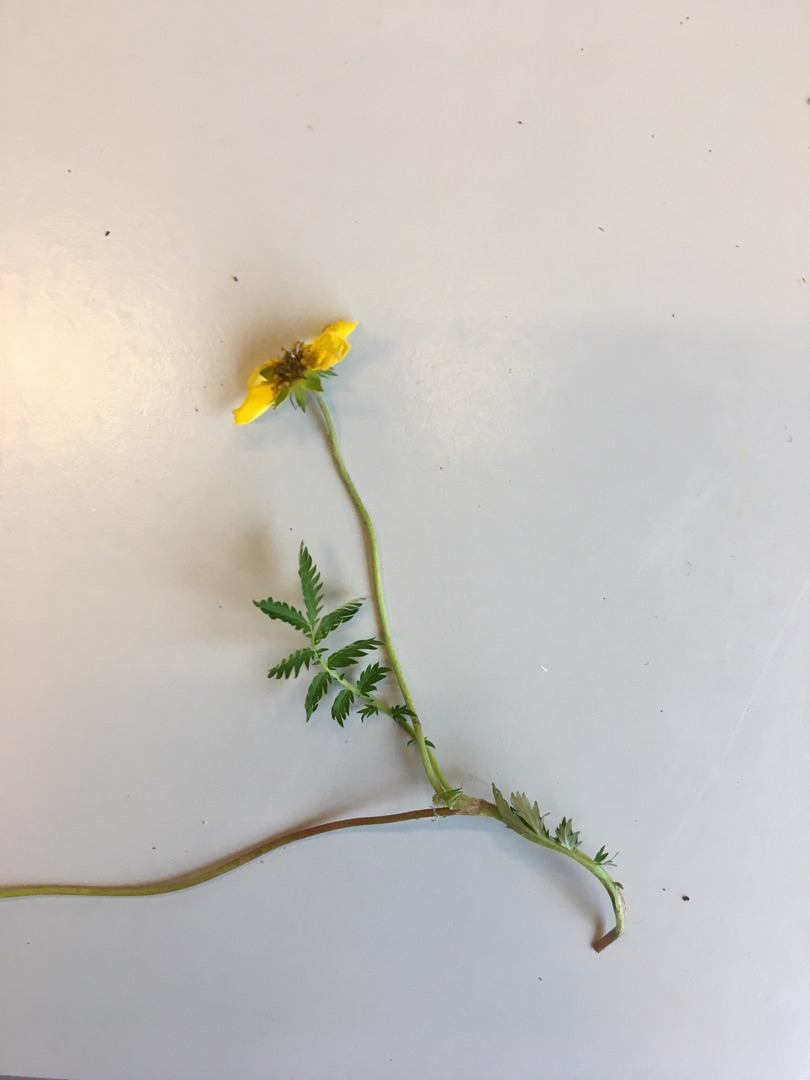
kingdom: Plantae
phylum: Tracheophyta
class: Magnoliopsida
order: Rosales
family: Rosaceae
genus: Argentina
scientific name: Argentina anserina
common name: Gåsepotentil
